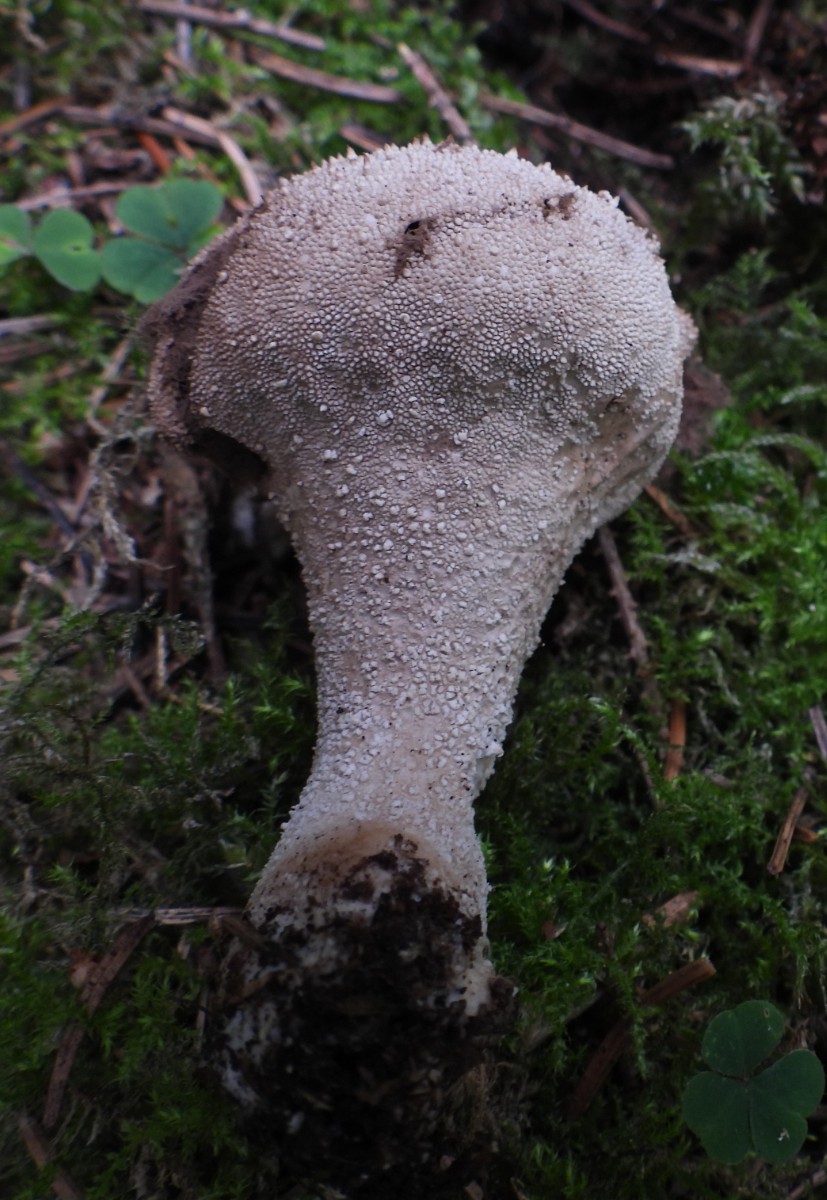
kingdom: Fungi
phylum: Basidiomycota
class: Agaricomycetes
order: Agaricales
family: Lycoperdaceae
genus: Lycoperdon
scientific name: Lycoperdon perlatum
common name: krystal-støvbold
